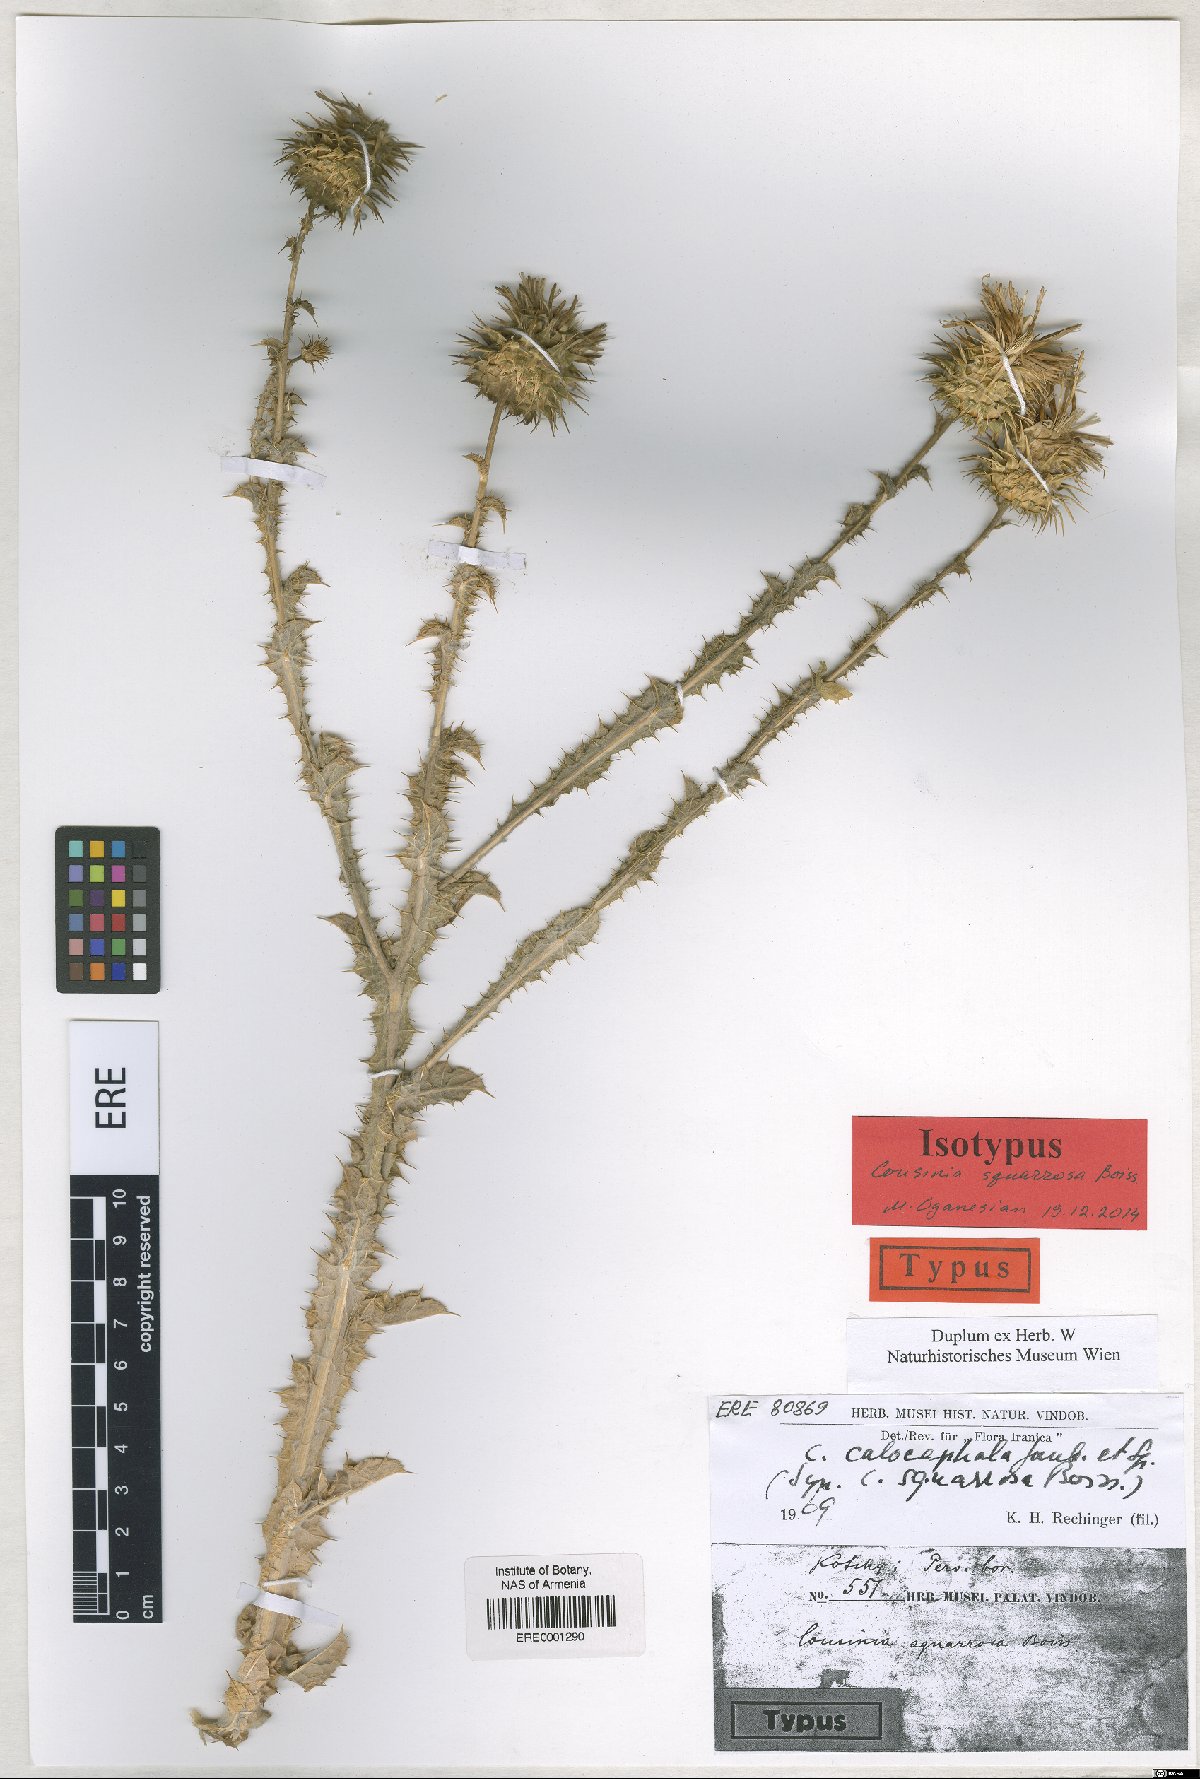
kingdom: Plantae
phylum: Tracheophyta
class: Magnoliopsida
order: Asterales
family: Asteraceae
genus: Cousinia
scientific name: Cousinia calocephala
